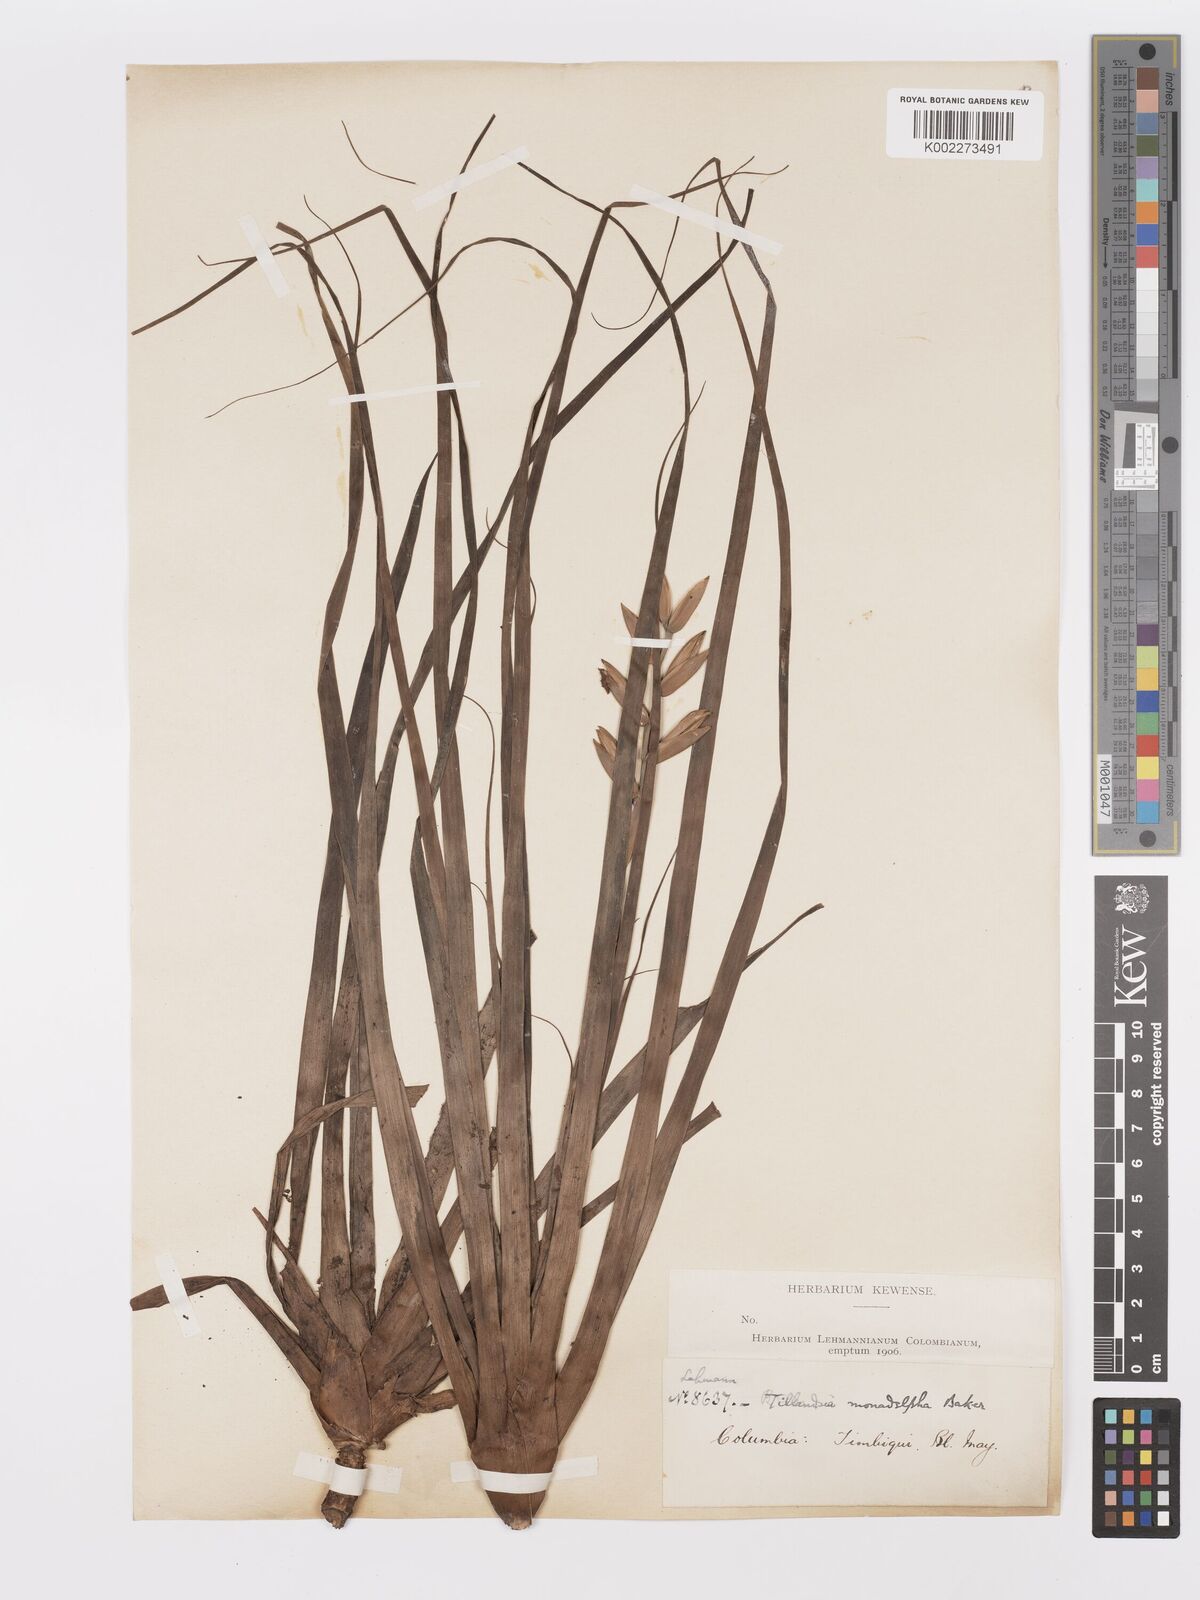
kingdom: Plantae
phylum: Tracheophyta
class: Liliopsida
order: Poales
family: Bromeliaceae
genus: Lemeltonia
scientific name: Lemeltonia monadelpha
